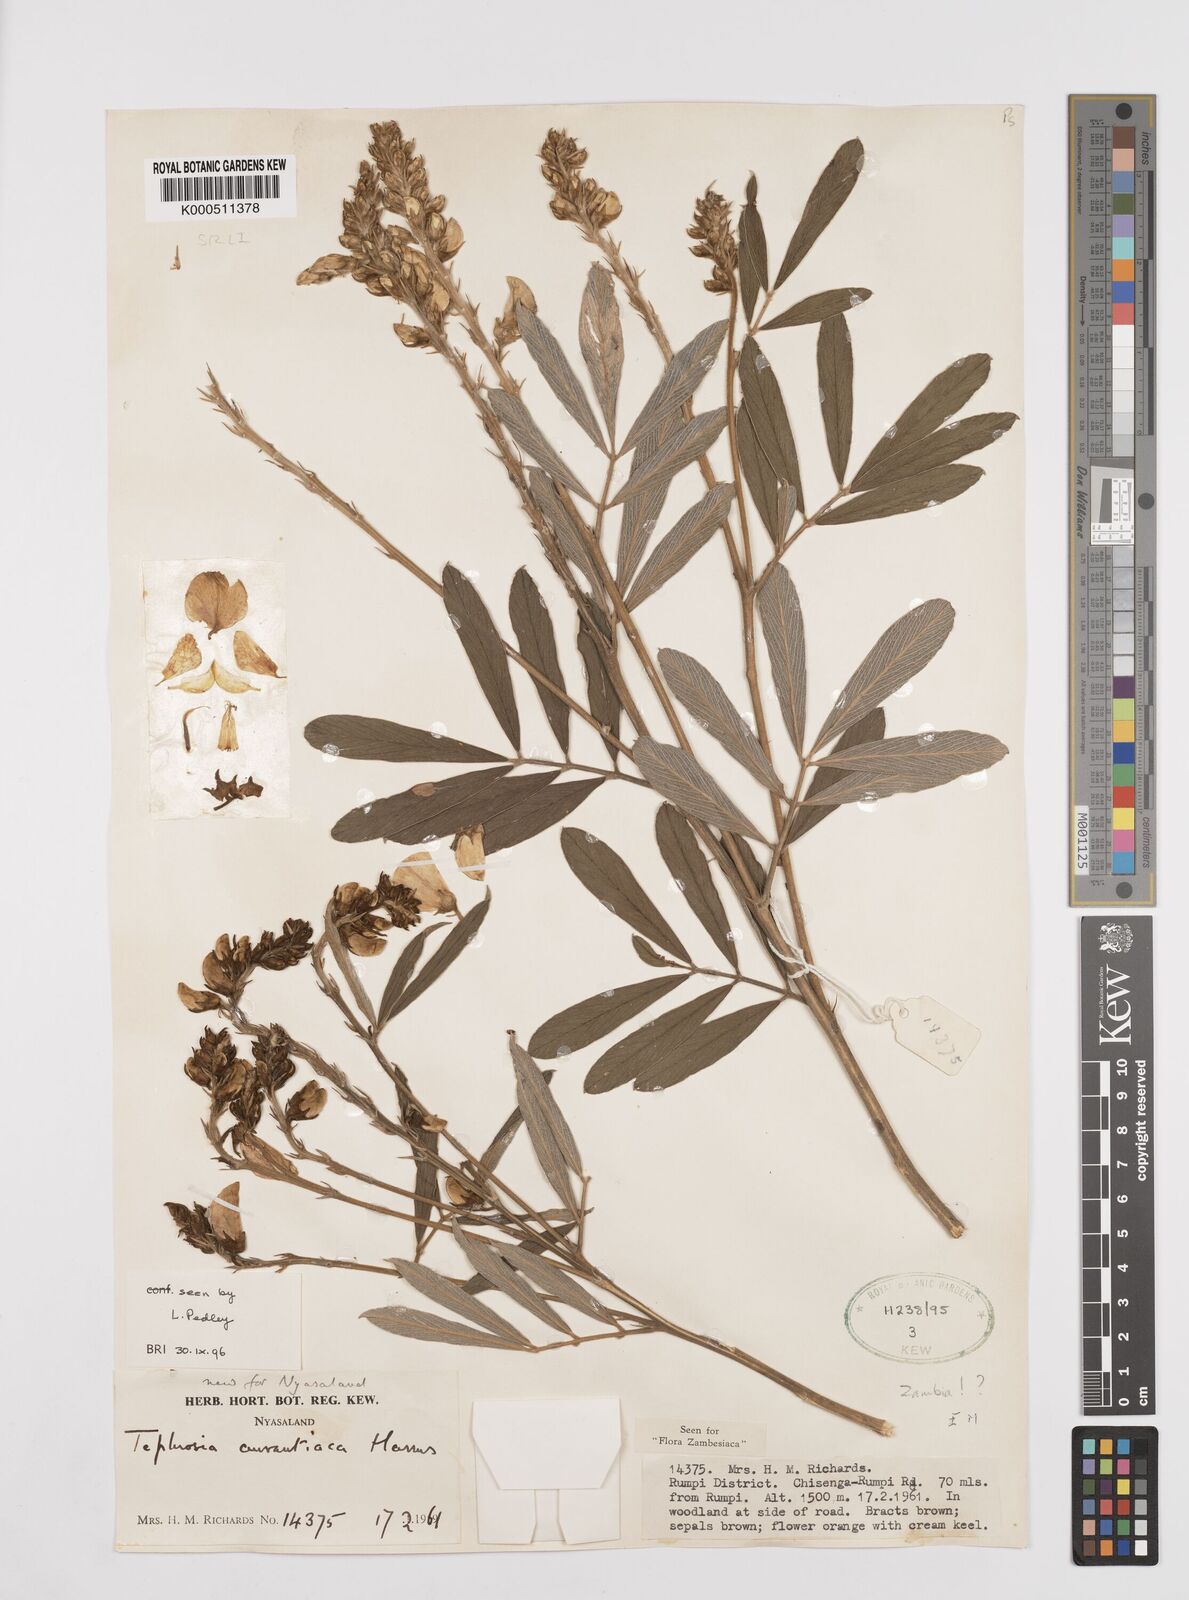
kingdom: Plantae
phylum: Tracheophyta
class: Magnoliopsida
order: Fabales
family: Fabaceae
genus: Tephrosia
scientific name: Tephrosia aurantiaca
